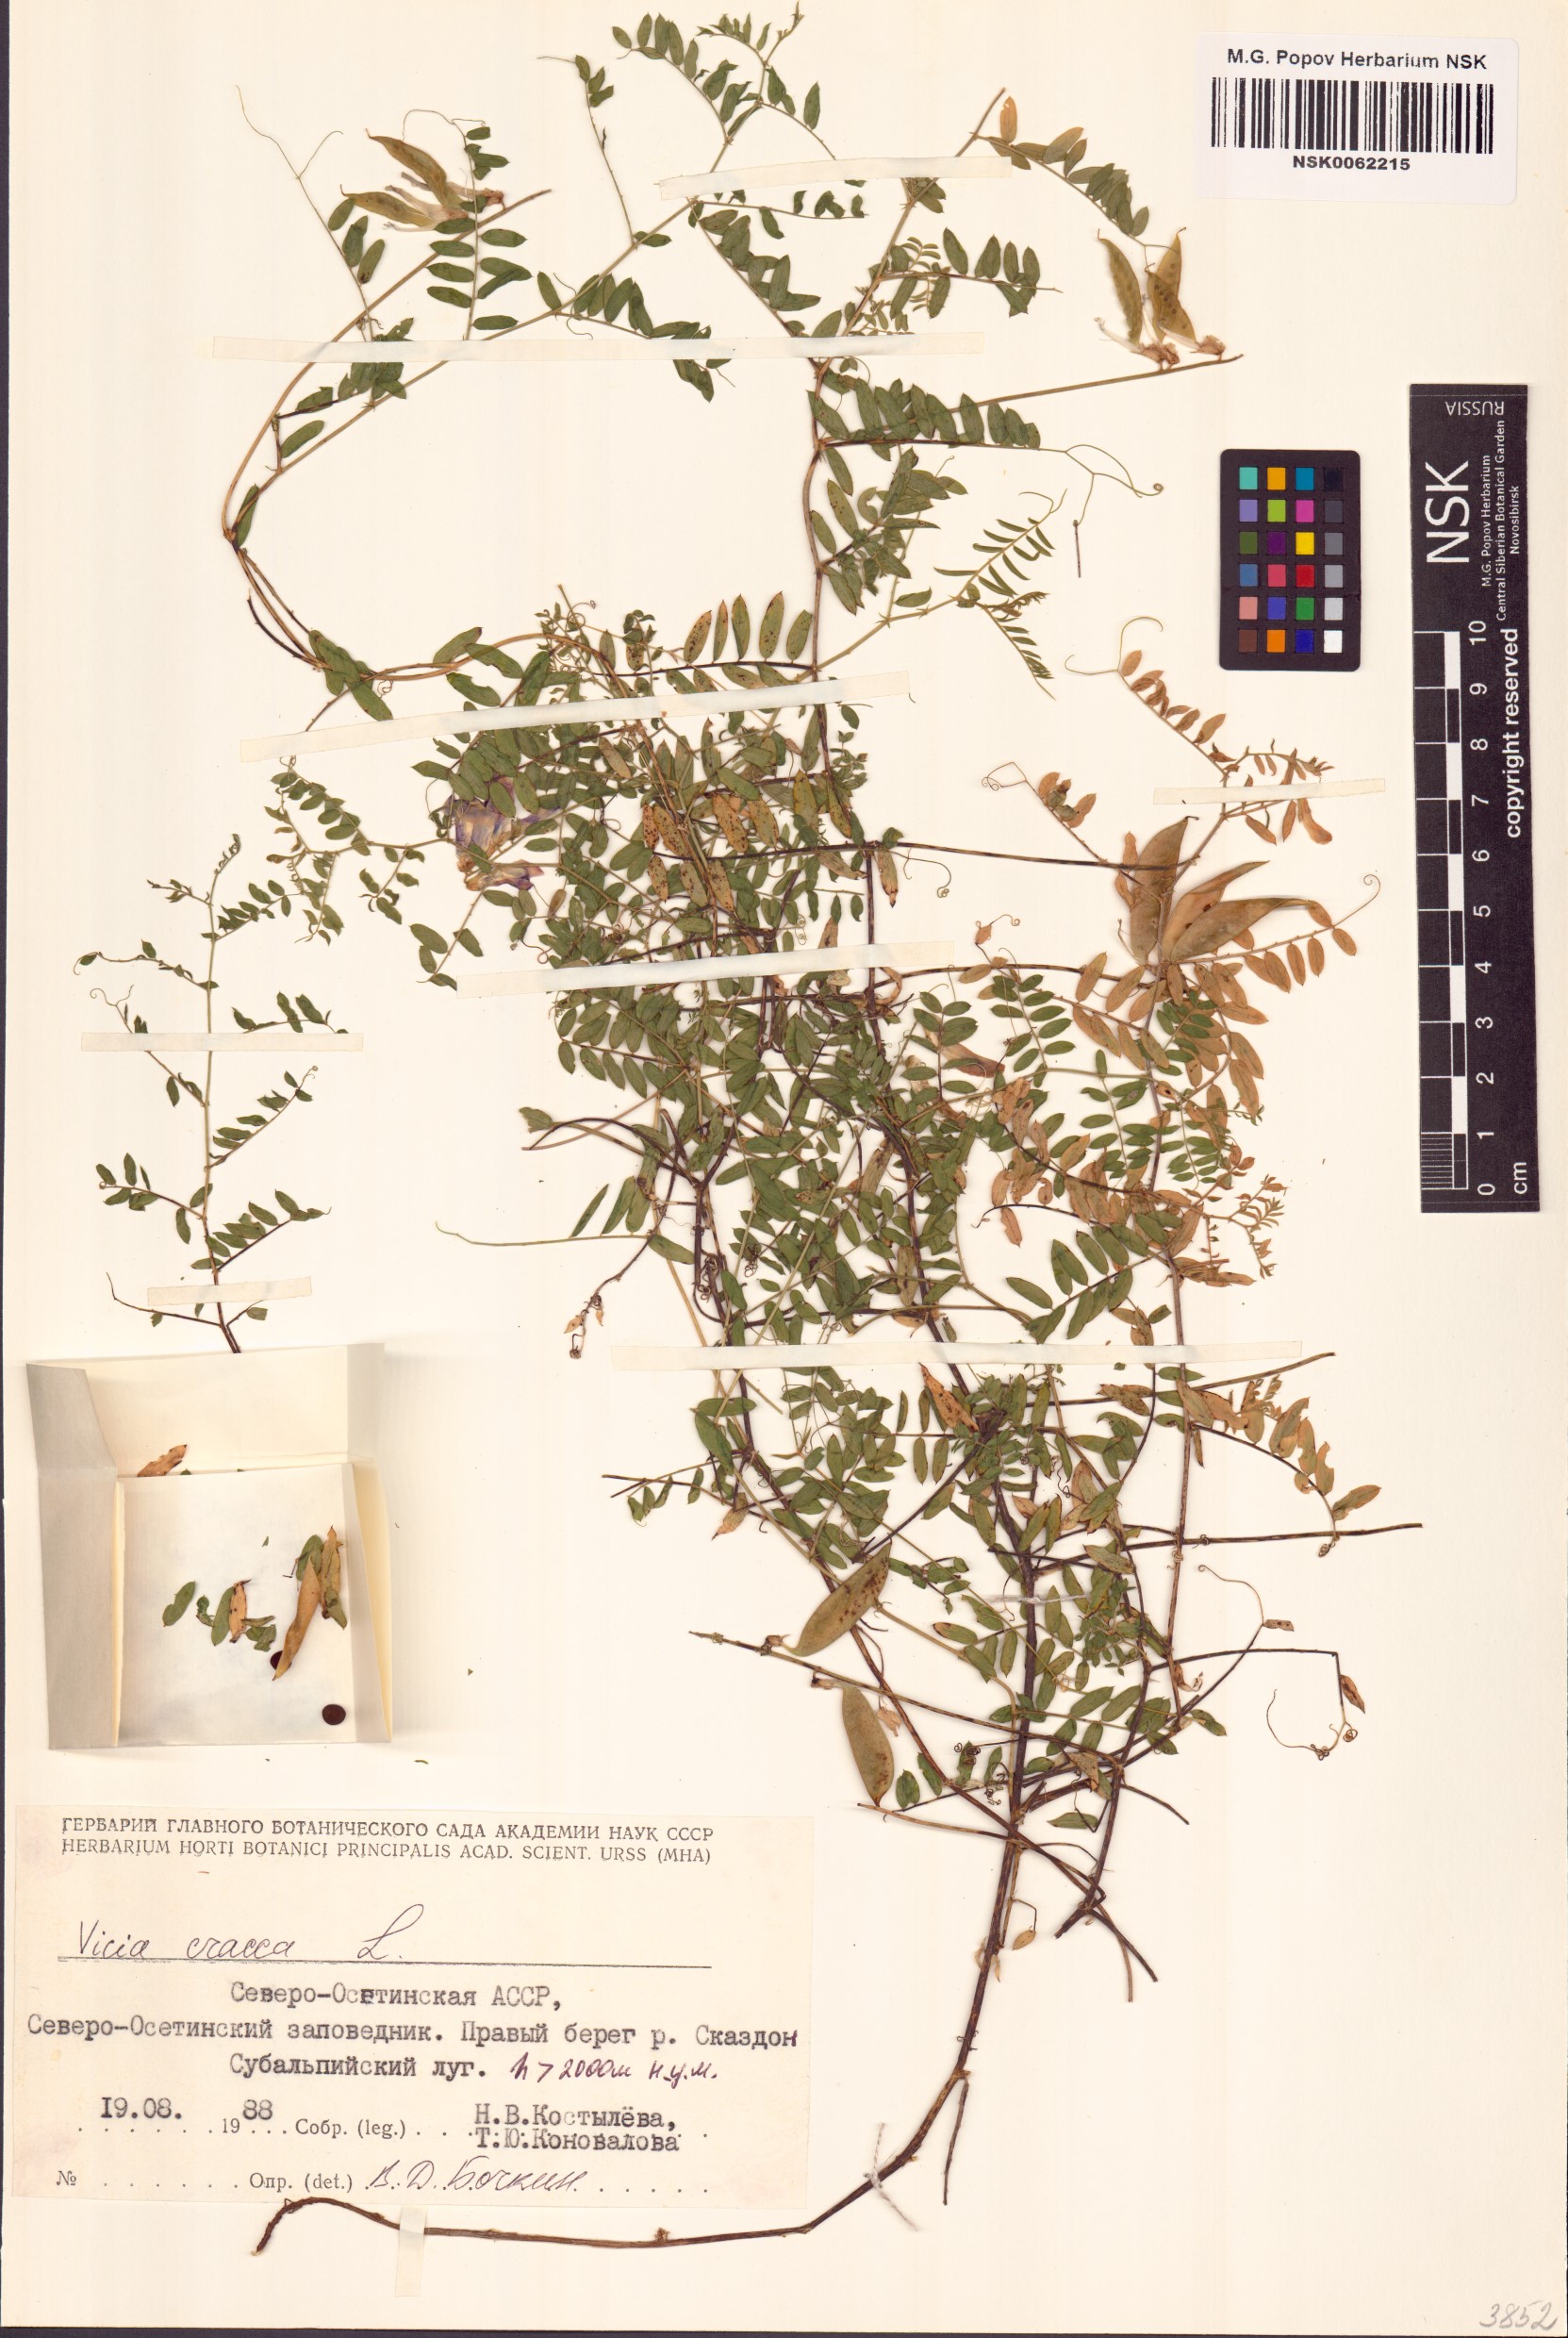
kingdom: Plantae
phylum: Tracheophyta
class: Magnoliopsida
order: Fabales
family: Fabaceae
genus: Vicia
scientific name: Vicia cracca
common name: Bird vetch
